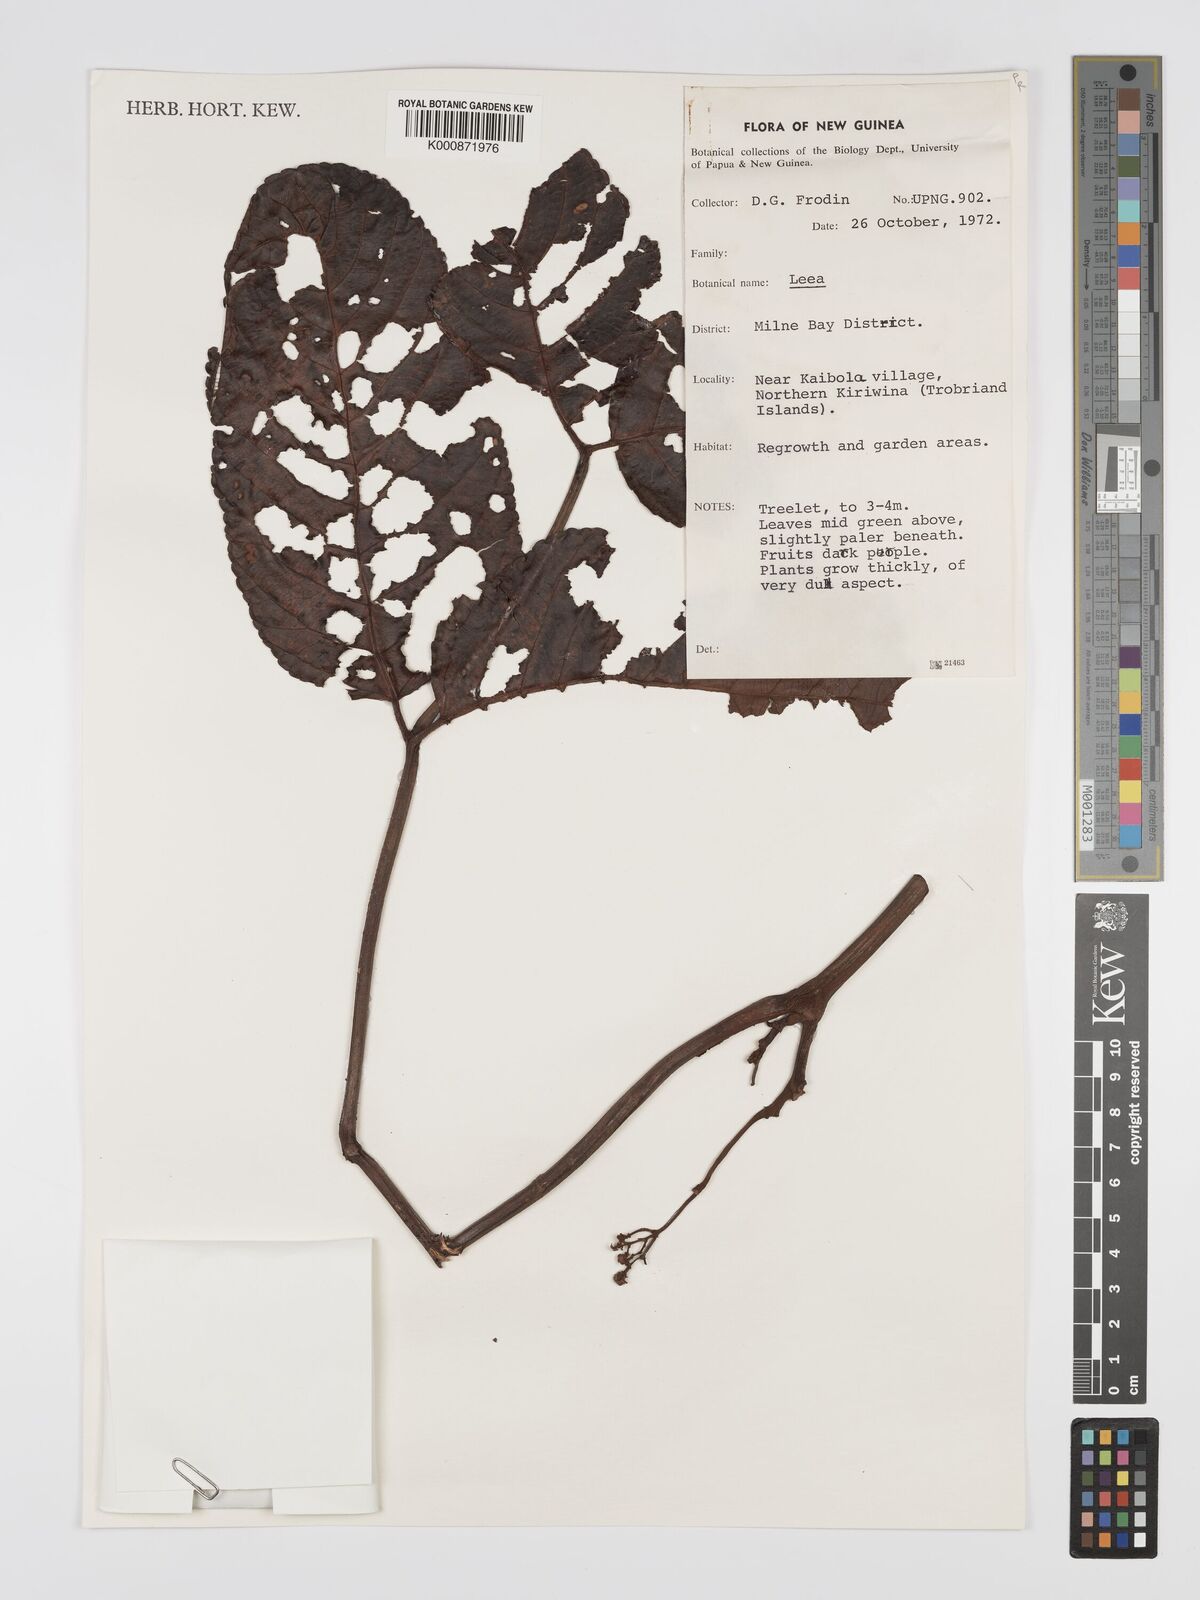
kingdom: Plantae
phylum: Tracheophyta
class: Magnoliopsida
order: Vitales
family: Vitaceae
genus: Leea
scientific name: Leea
